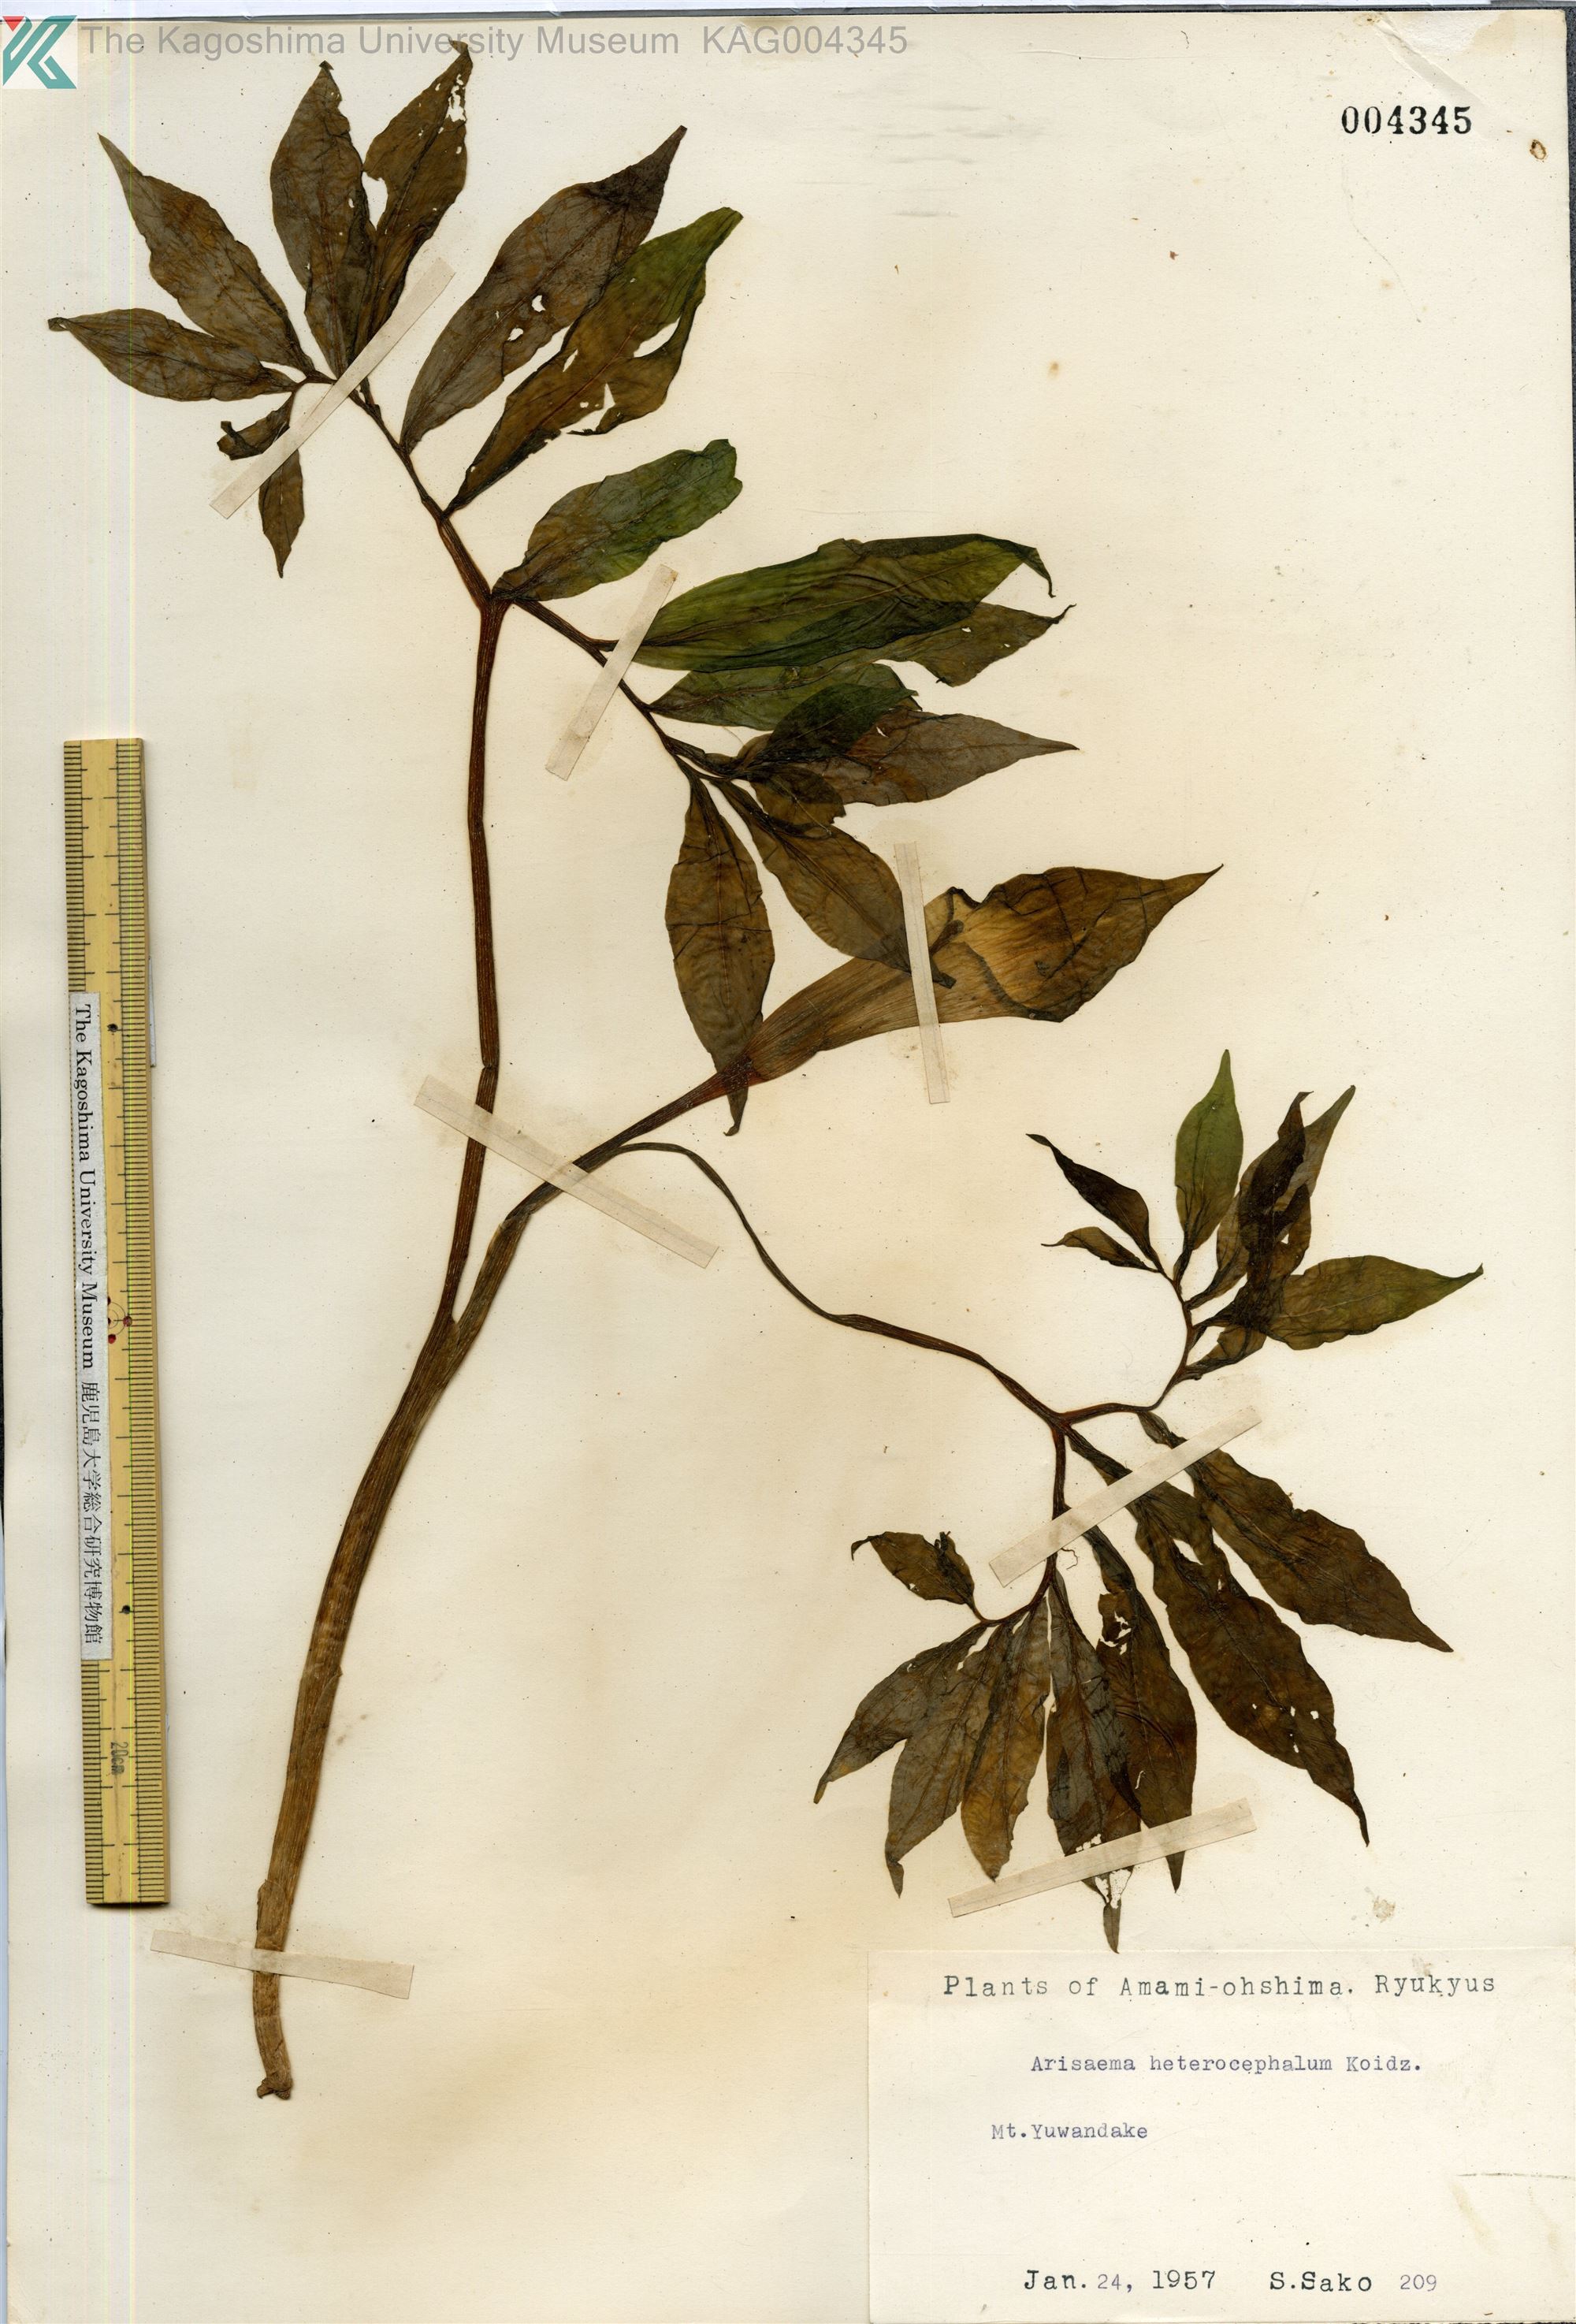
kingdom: Plantae
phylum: Tracheophyta
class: Liliopsida
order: Alismatales
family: Araceae
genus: Arisaema
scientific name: Arisaema heterocephalum
